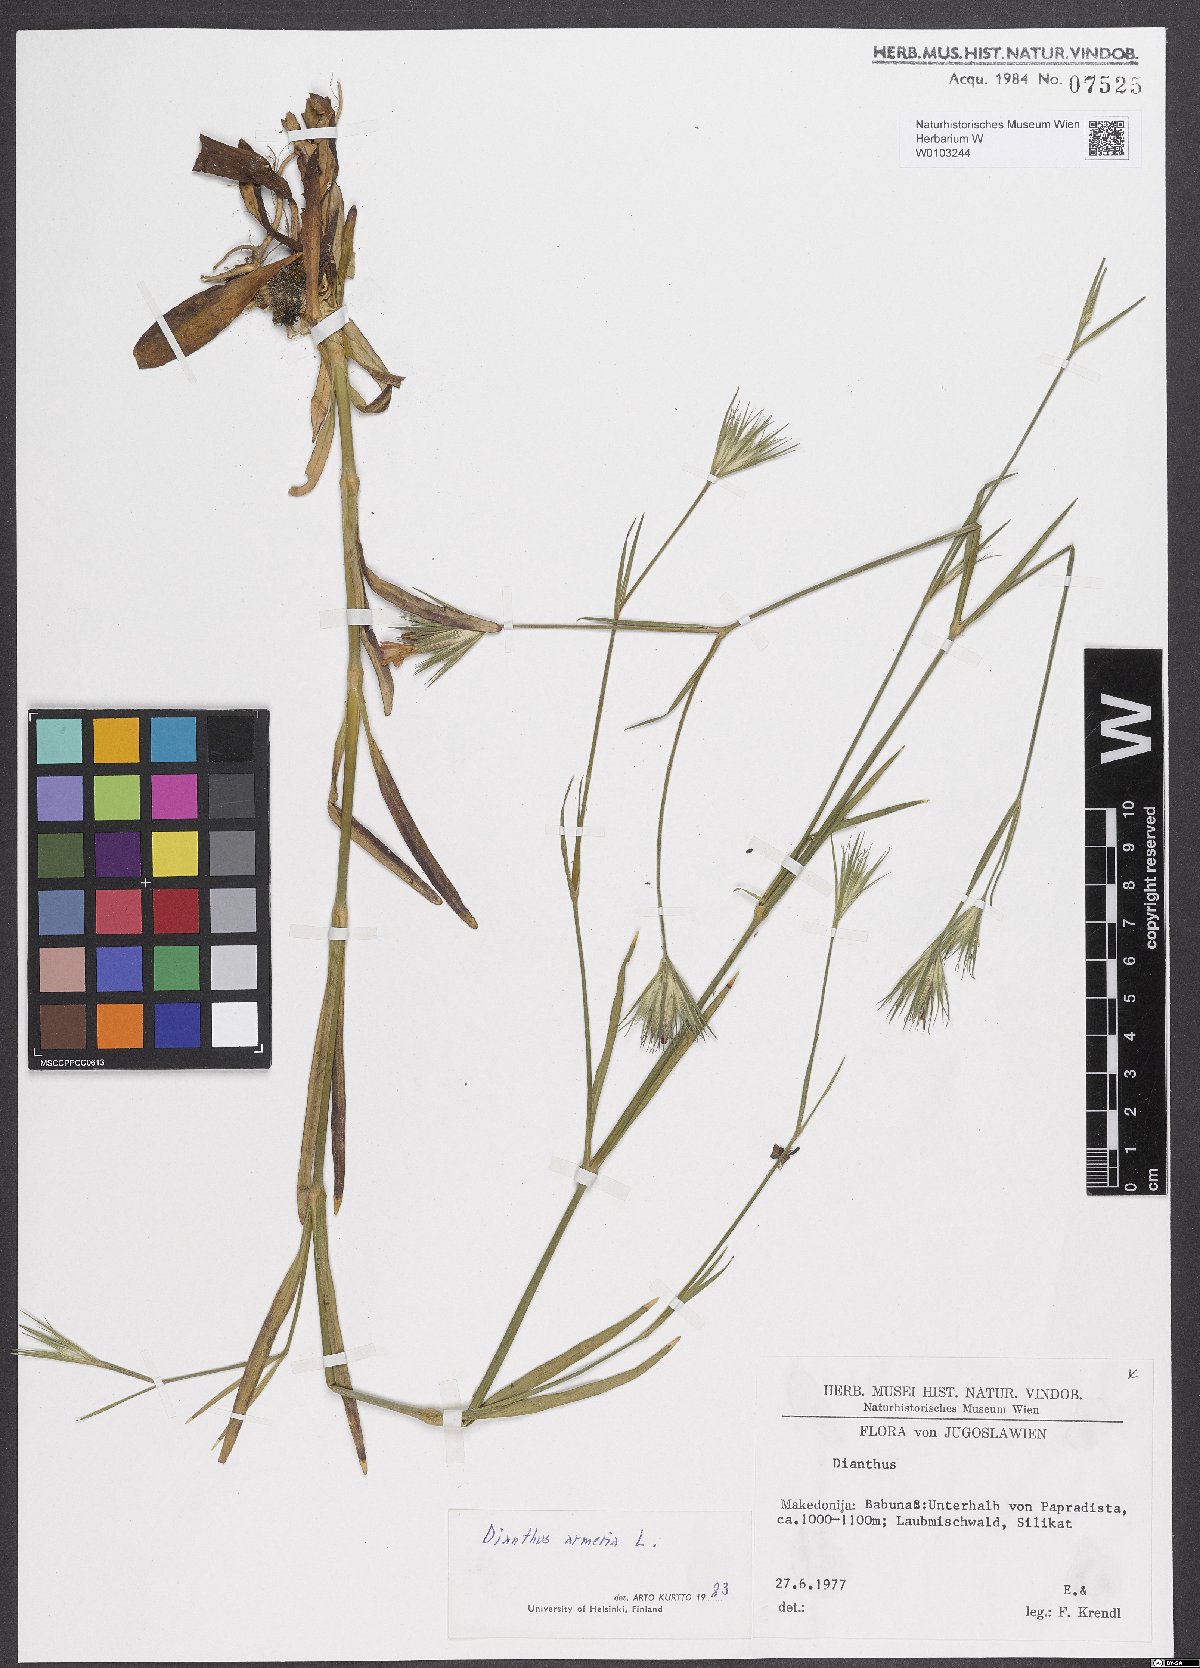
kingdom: Plantae
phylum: Tracheophyta
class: Magnoliopsida
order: Caryophyllales
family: Caryophyllaceae
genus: Dianthus
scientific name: Dianthus armeria
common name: Deptford pink
